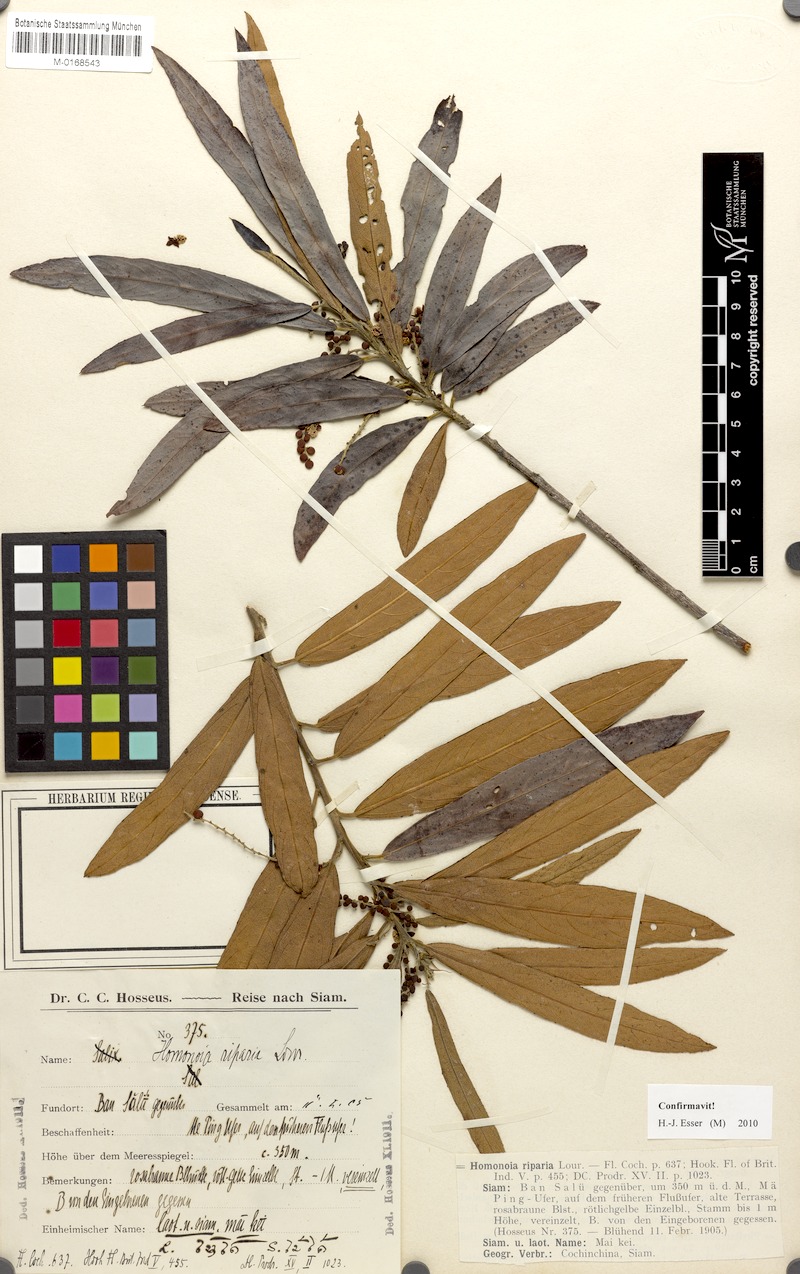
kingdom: Plantae
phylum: Tracheophyta
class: Magnoliopsida
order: Malpighiales
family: Euphorbiaceae
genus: Homonoia
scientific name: Homonoia riparia
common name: Willow-leaved water croton
